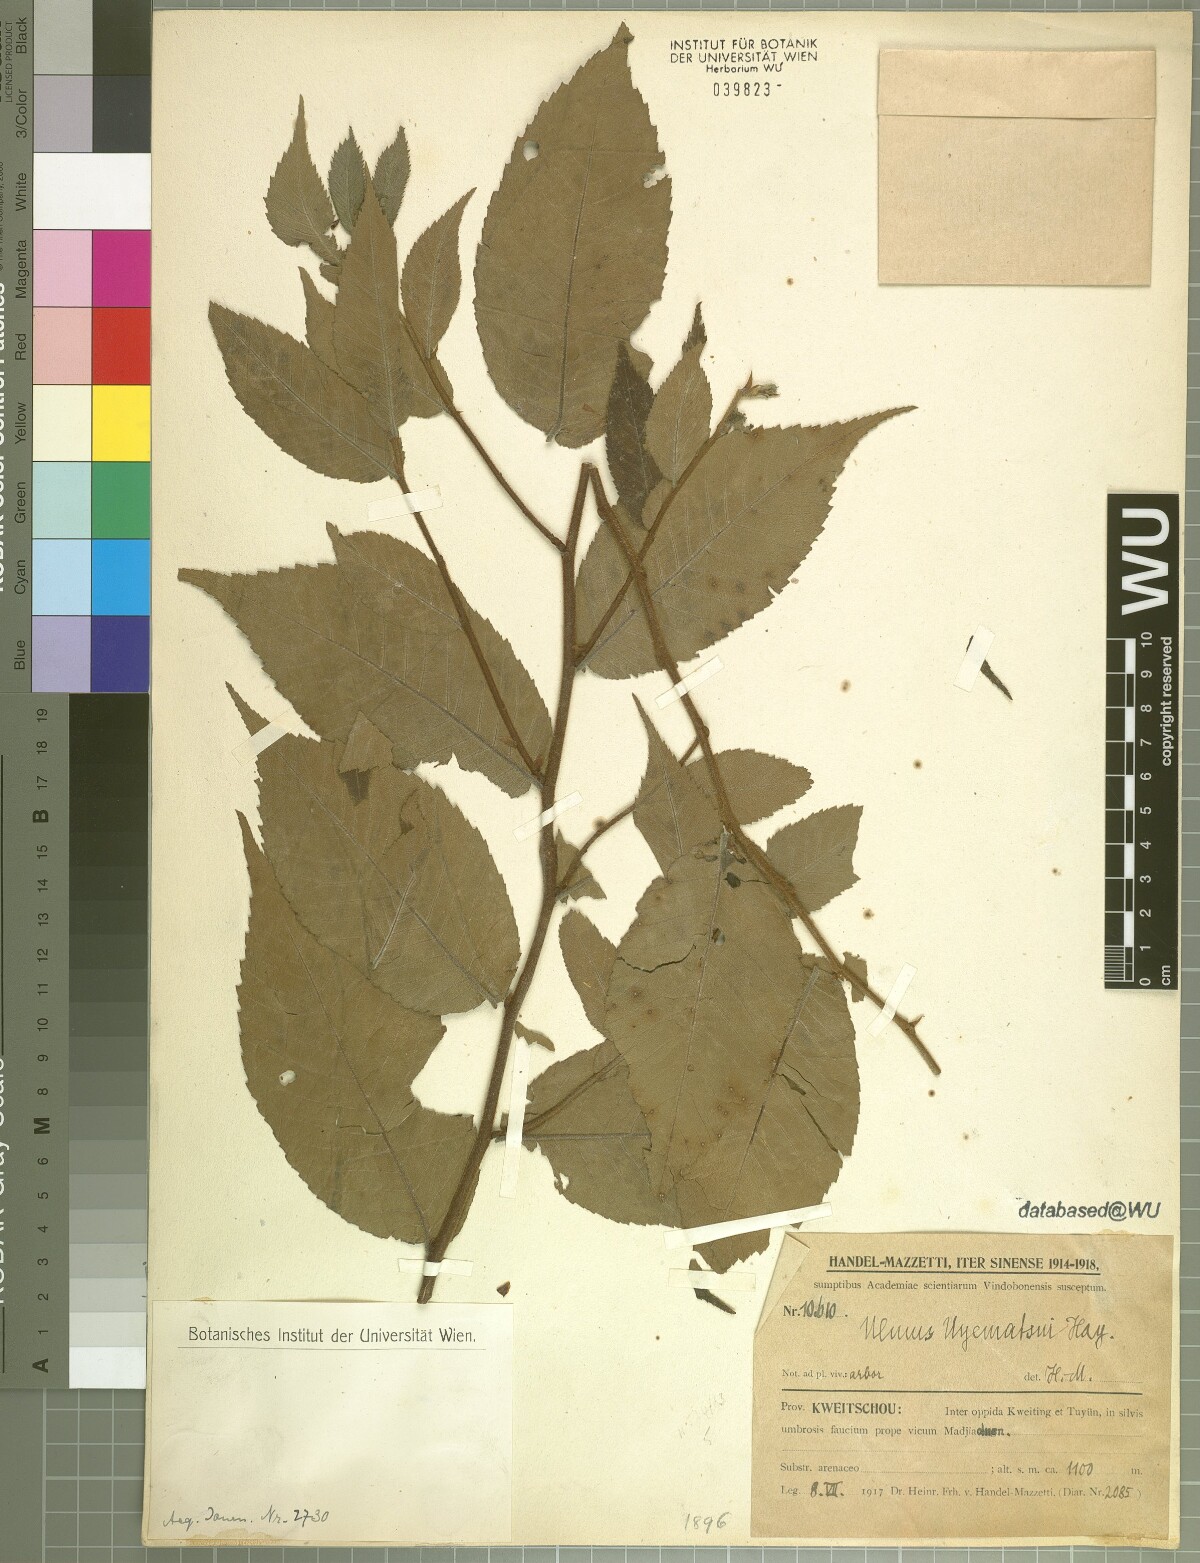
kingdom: Plantae
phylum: Tracheophyta
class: Magnoliopsida
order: Rosales
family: Ulmaceae
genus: Ulmus
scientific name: Ulmus uyematsui
